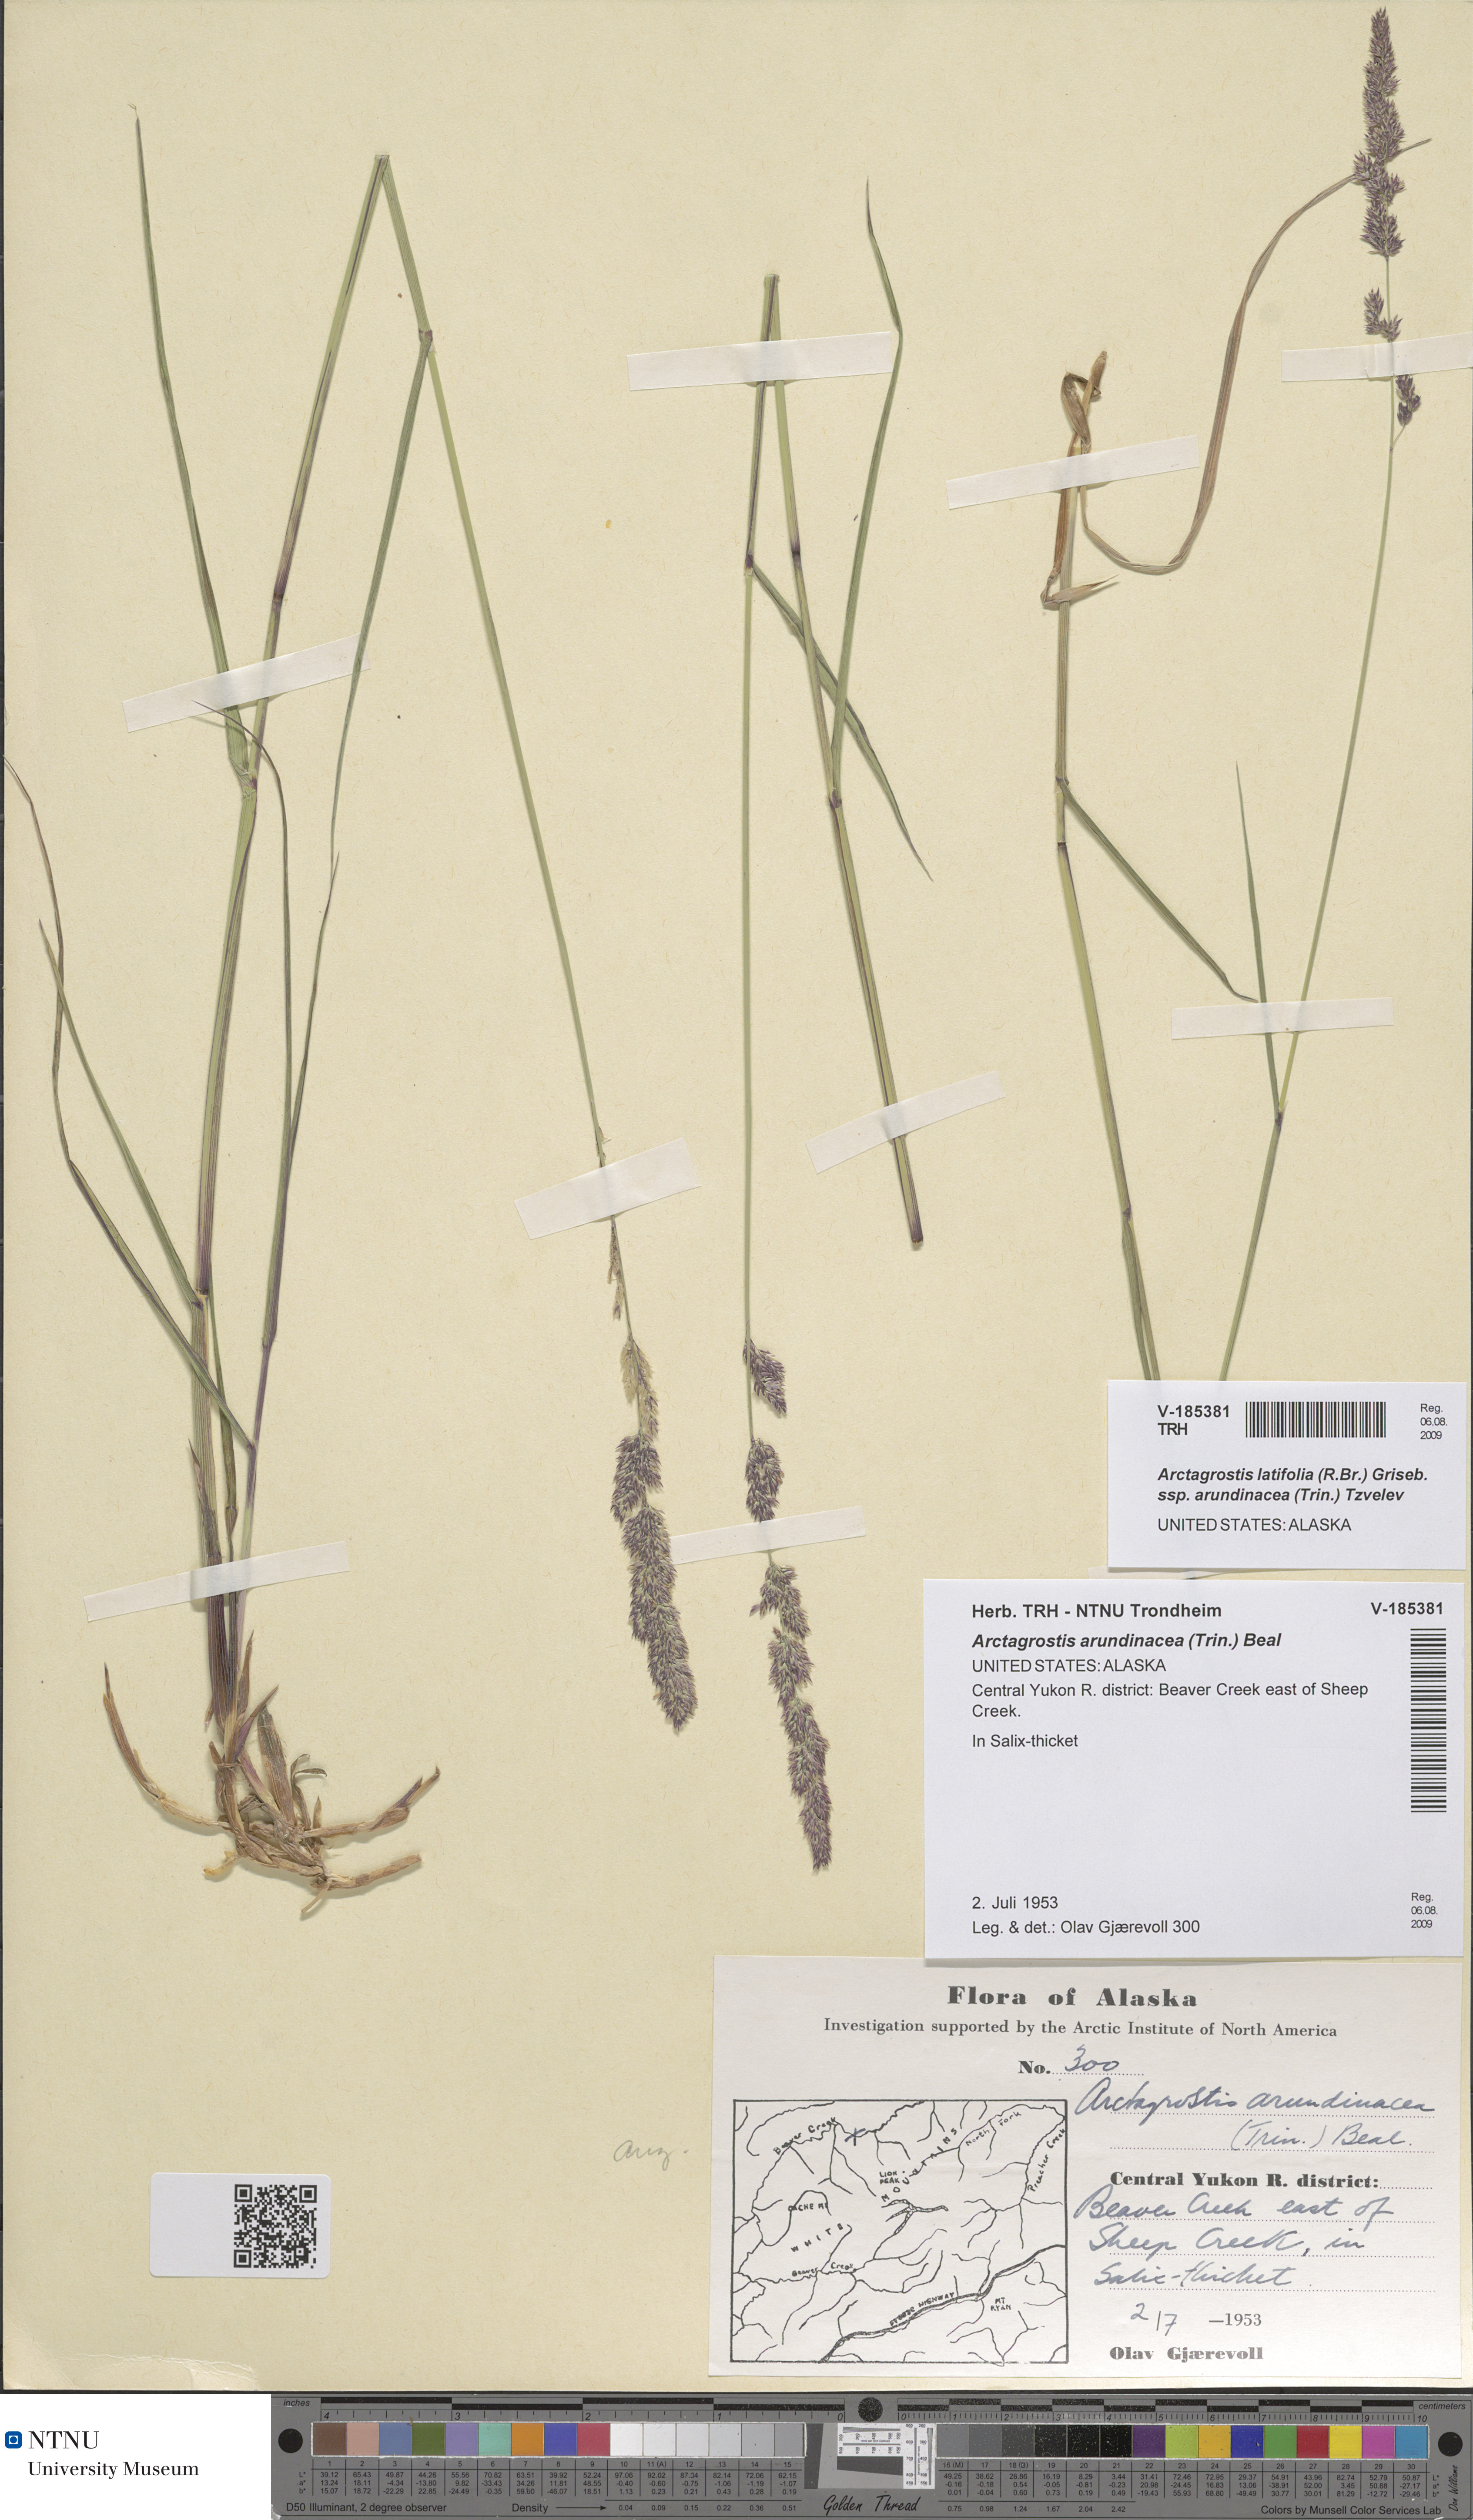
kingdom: Plantae
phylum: Tracheophyta
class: Liliopsida
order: Poales
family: Poaceae
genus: Arctagrostis
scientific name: Arctagrostis arundinacea
